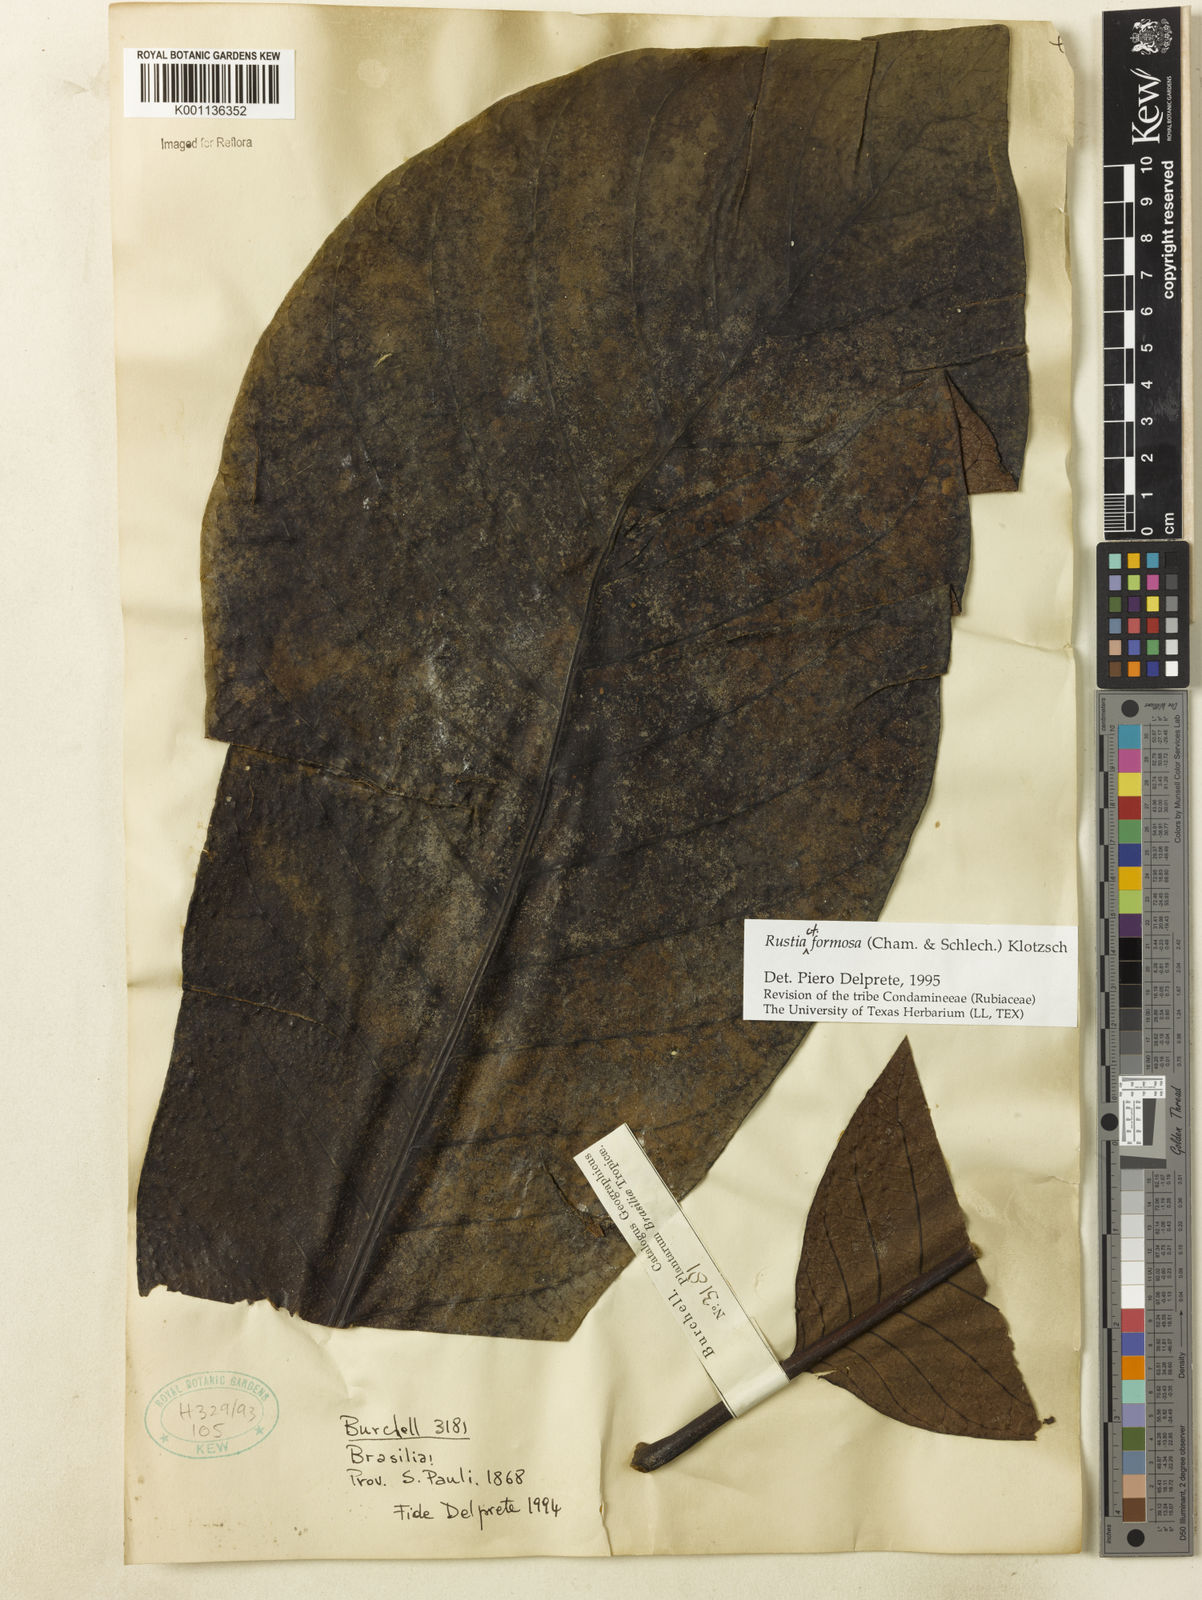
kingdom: Plantae
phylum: Tracheophyta
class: Magnoliopsida
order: Gentianales
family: Rubiaceae
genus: Rustia
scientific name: Rustia formosa
